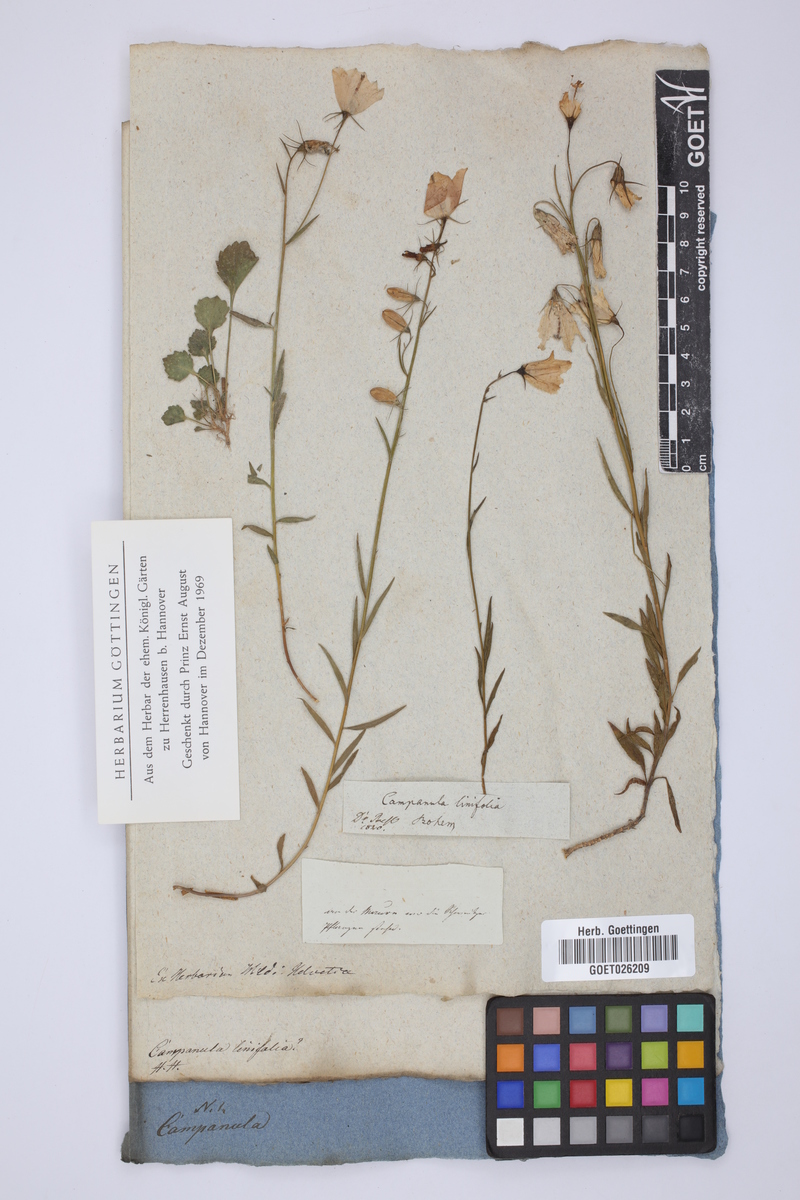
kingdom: Plantae
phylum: Tracheophyta
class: Magnoliopsida
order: Asterales
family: Campanulaceae
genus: Campanula
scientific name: Campanula
